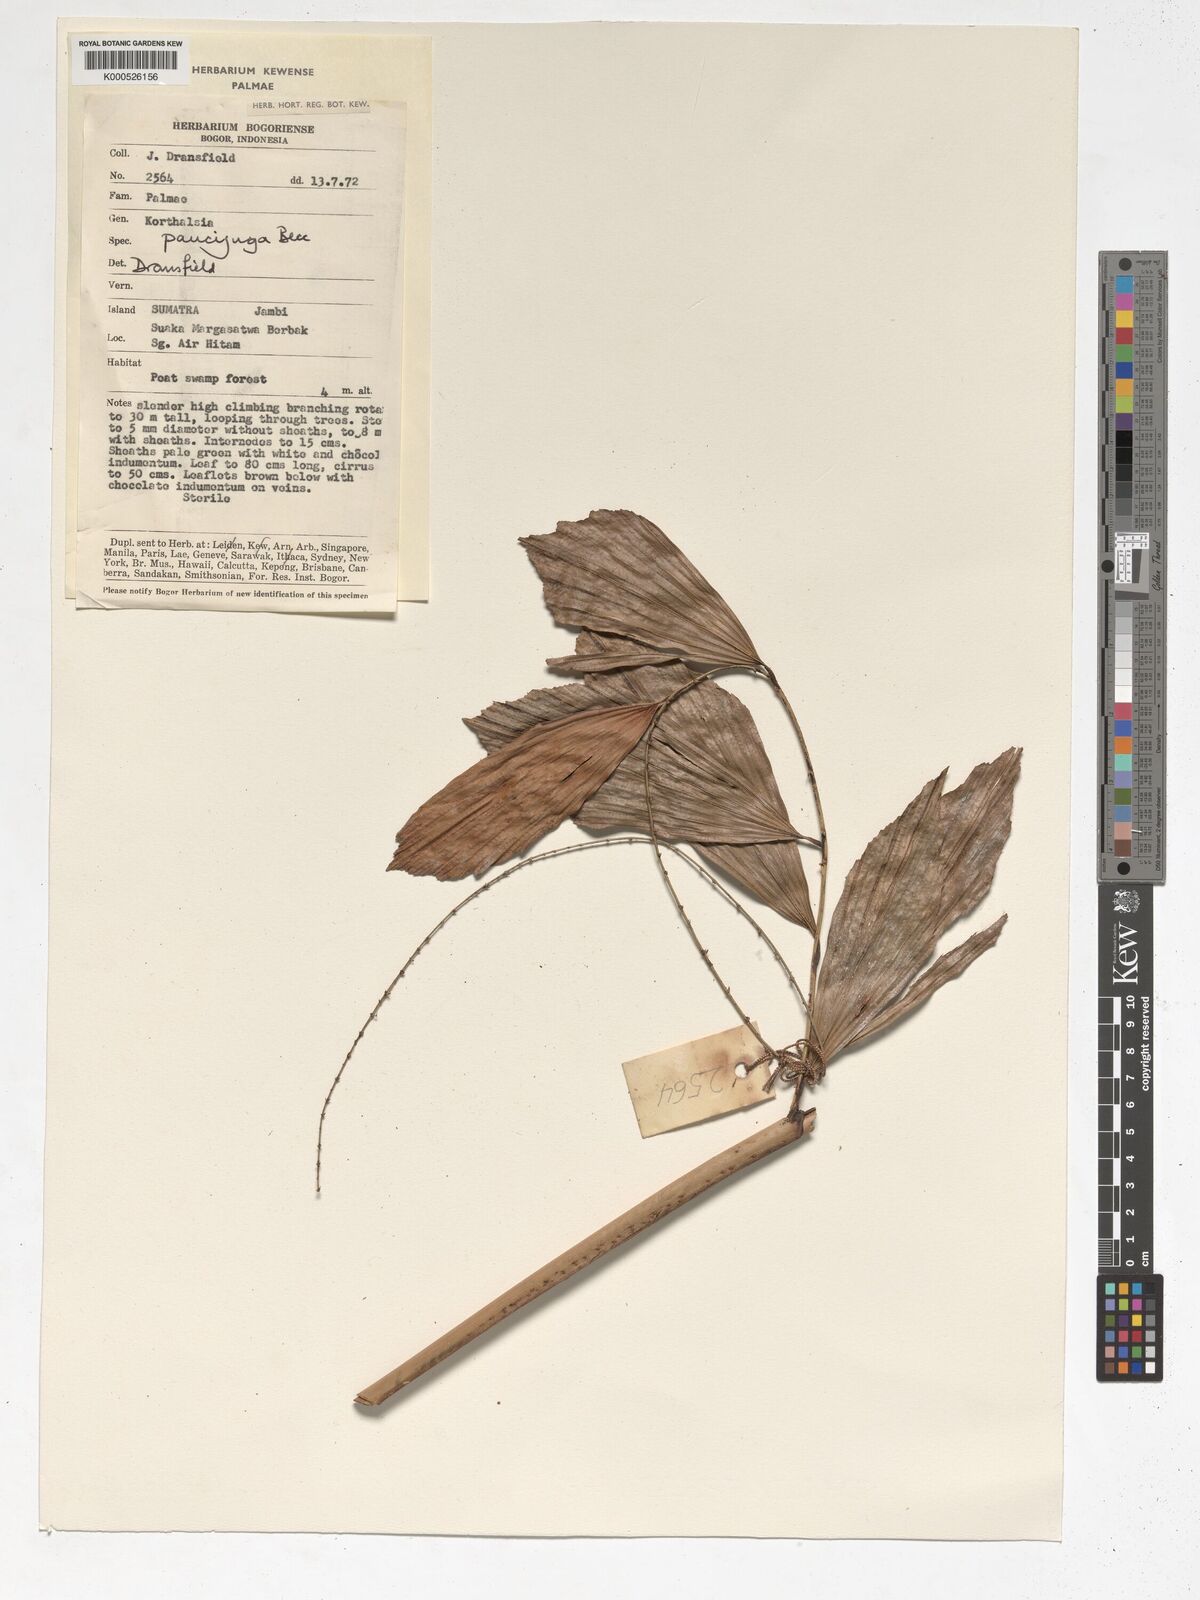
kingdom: Plantae
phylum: Tracheophyta
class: Liliopsida
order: Arecales
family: Arecaceae
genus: Korthalsia
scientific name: Korthalsia paucijuga
